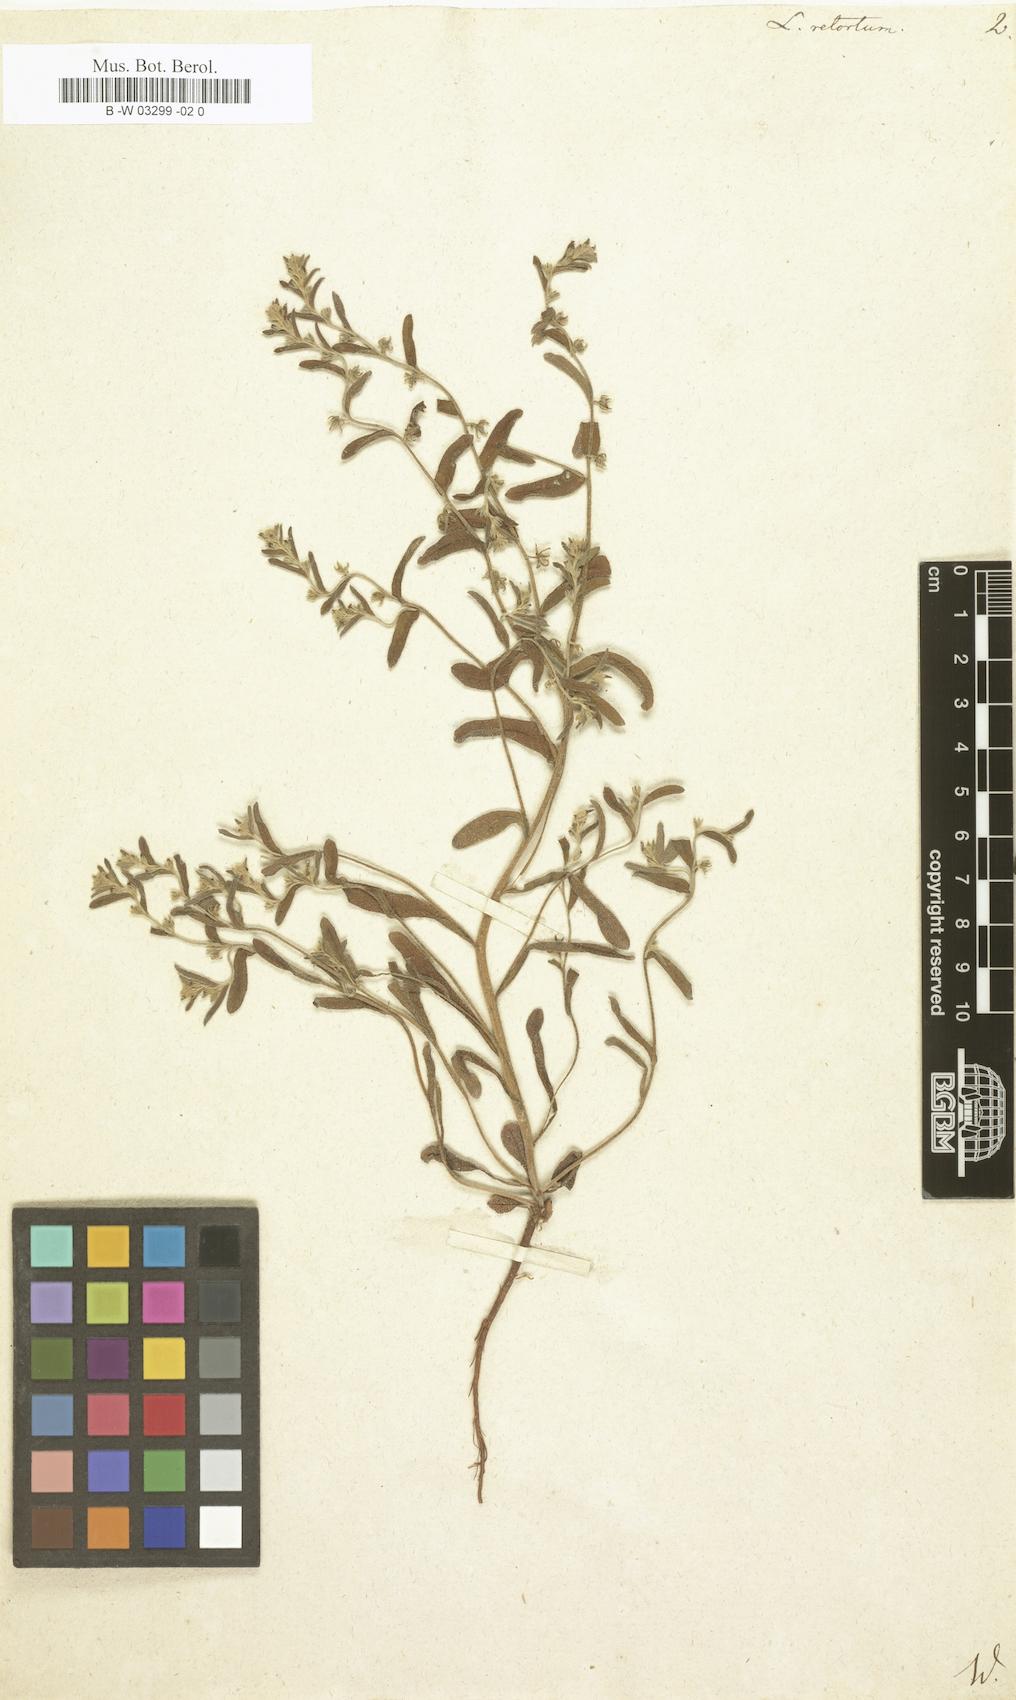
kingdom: Plantae
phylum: Tracheophyta
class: Magnoliopsida
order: Boraginales
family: Boraginaceae
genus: Rochelia
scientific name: Rochelia retorta
